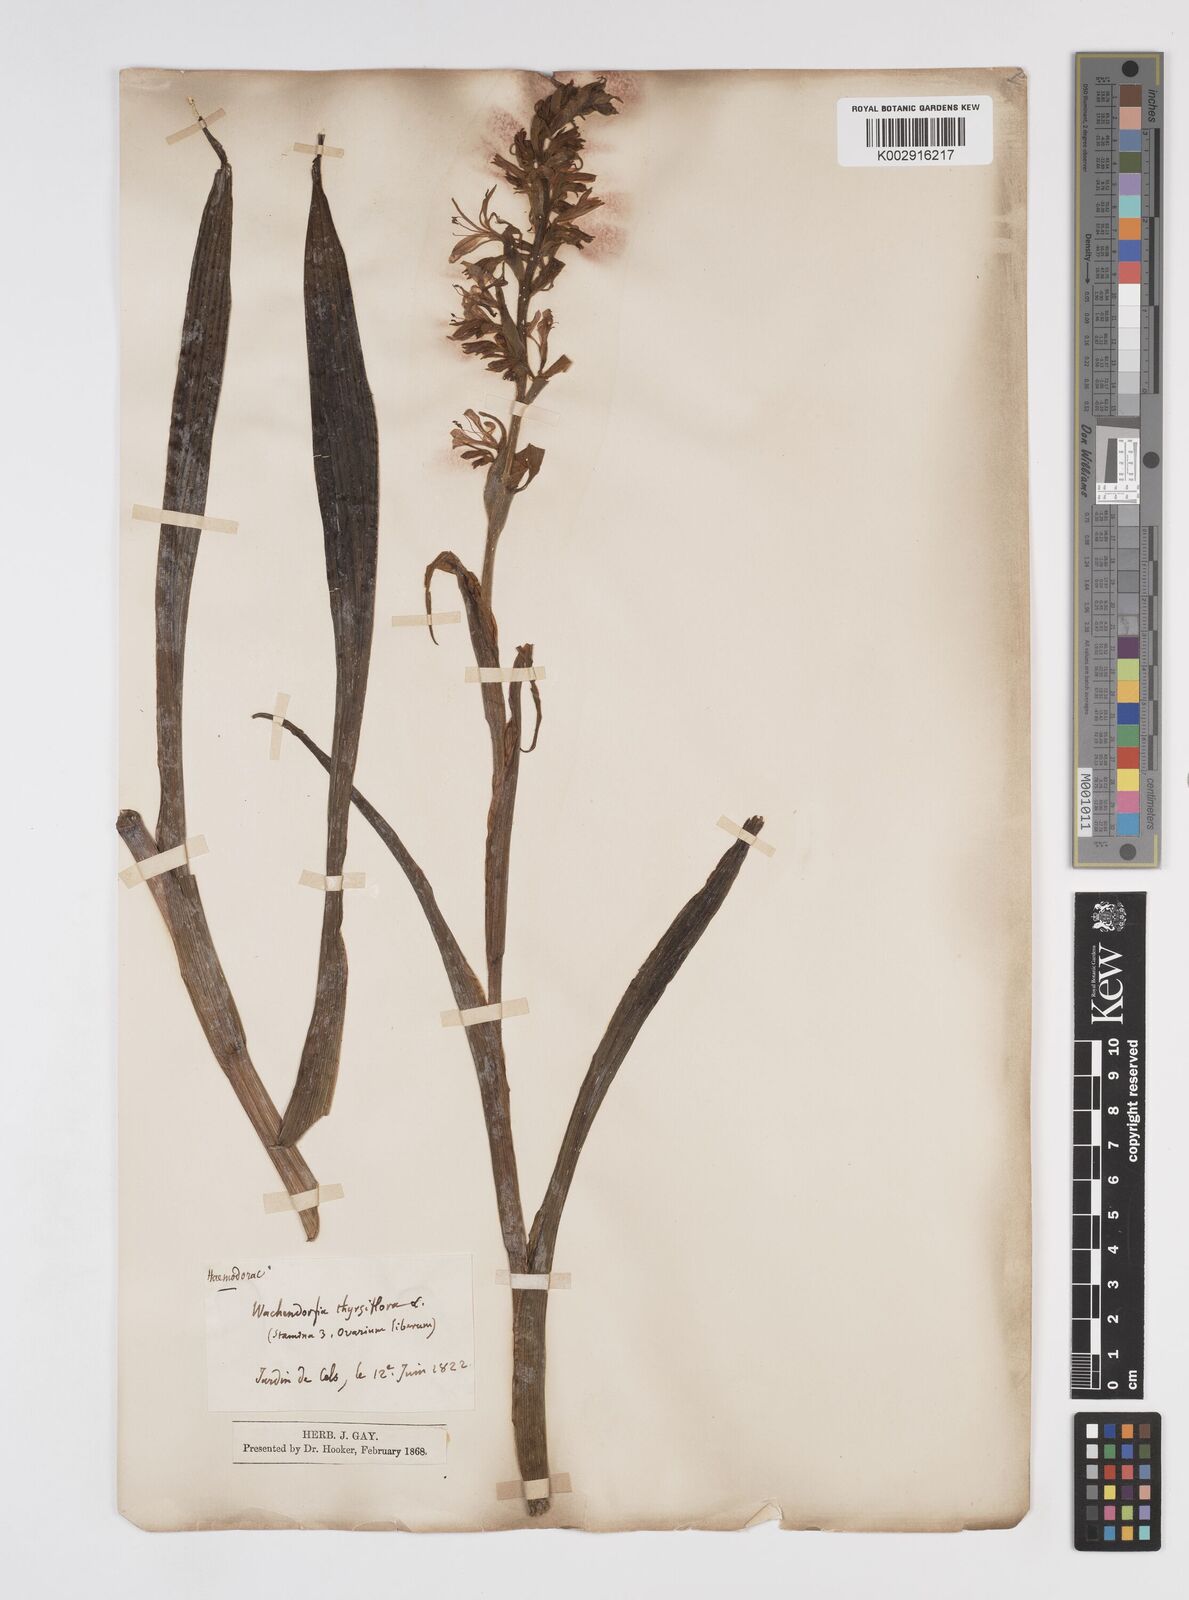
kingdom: Plantae
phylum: Tracheophyta
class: Liliopsida
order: Commelinales
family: Haemodoraceae
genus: Wachendorfia
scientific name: Wachendorfia thyrsiflora
